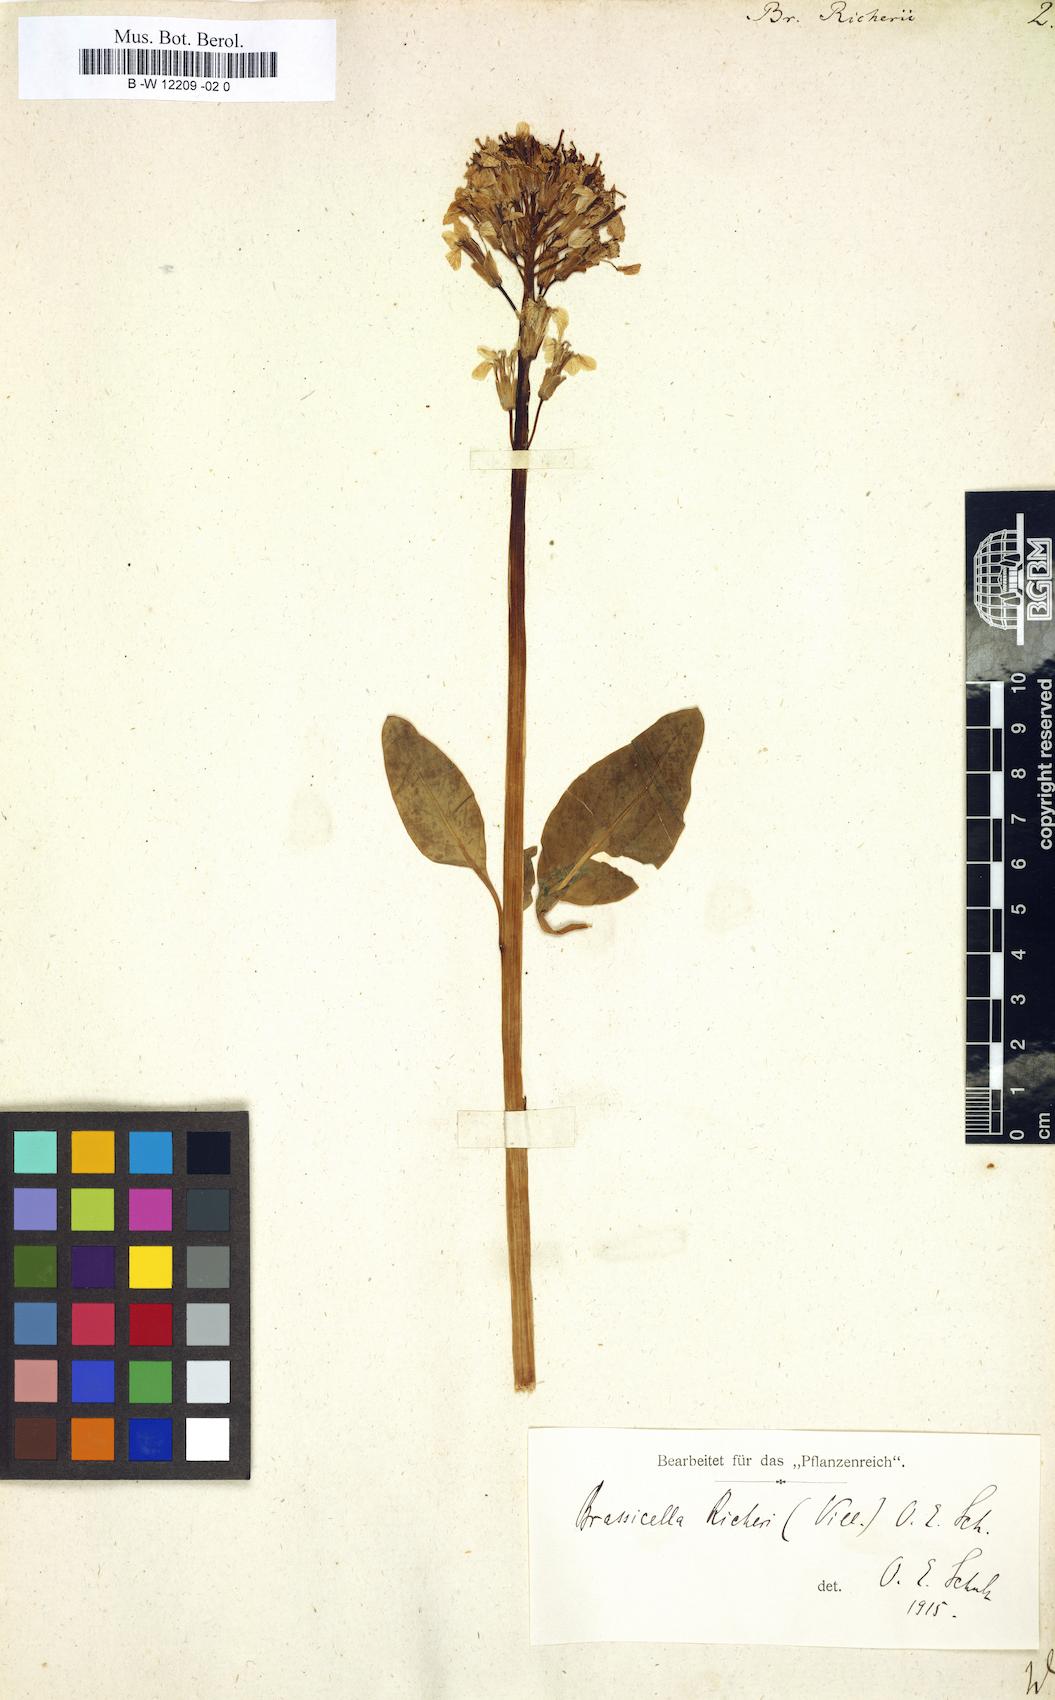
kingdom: Plantae
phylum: Tracheophyta
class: Magnoliopsida
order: Brassicales
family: Brassicaceae
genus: Brassica
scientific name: Brassica richeri
